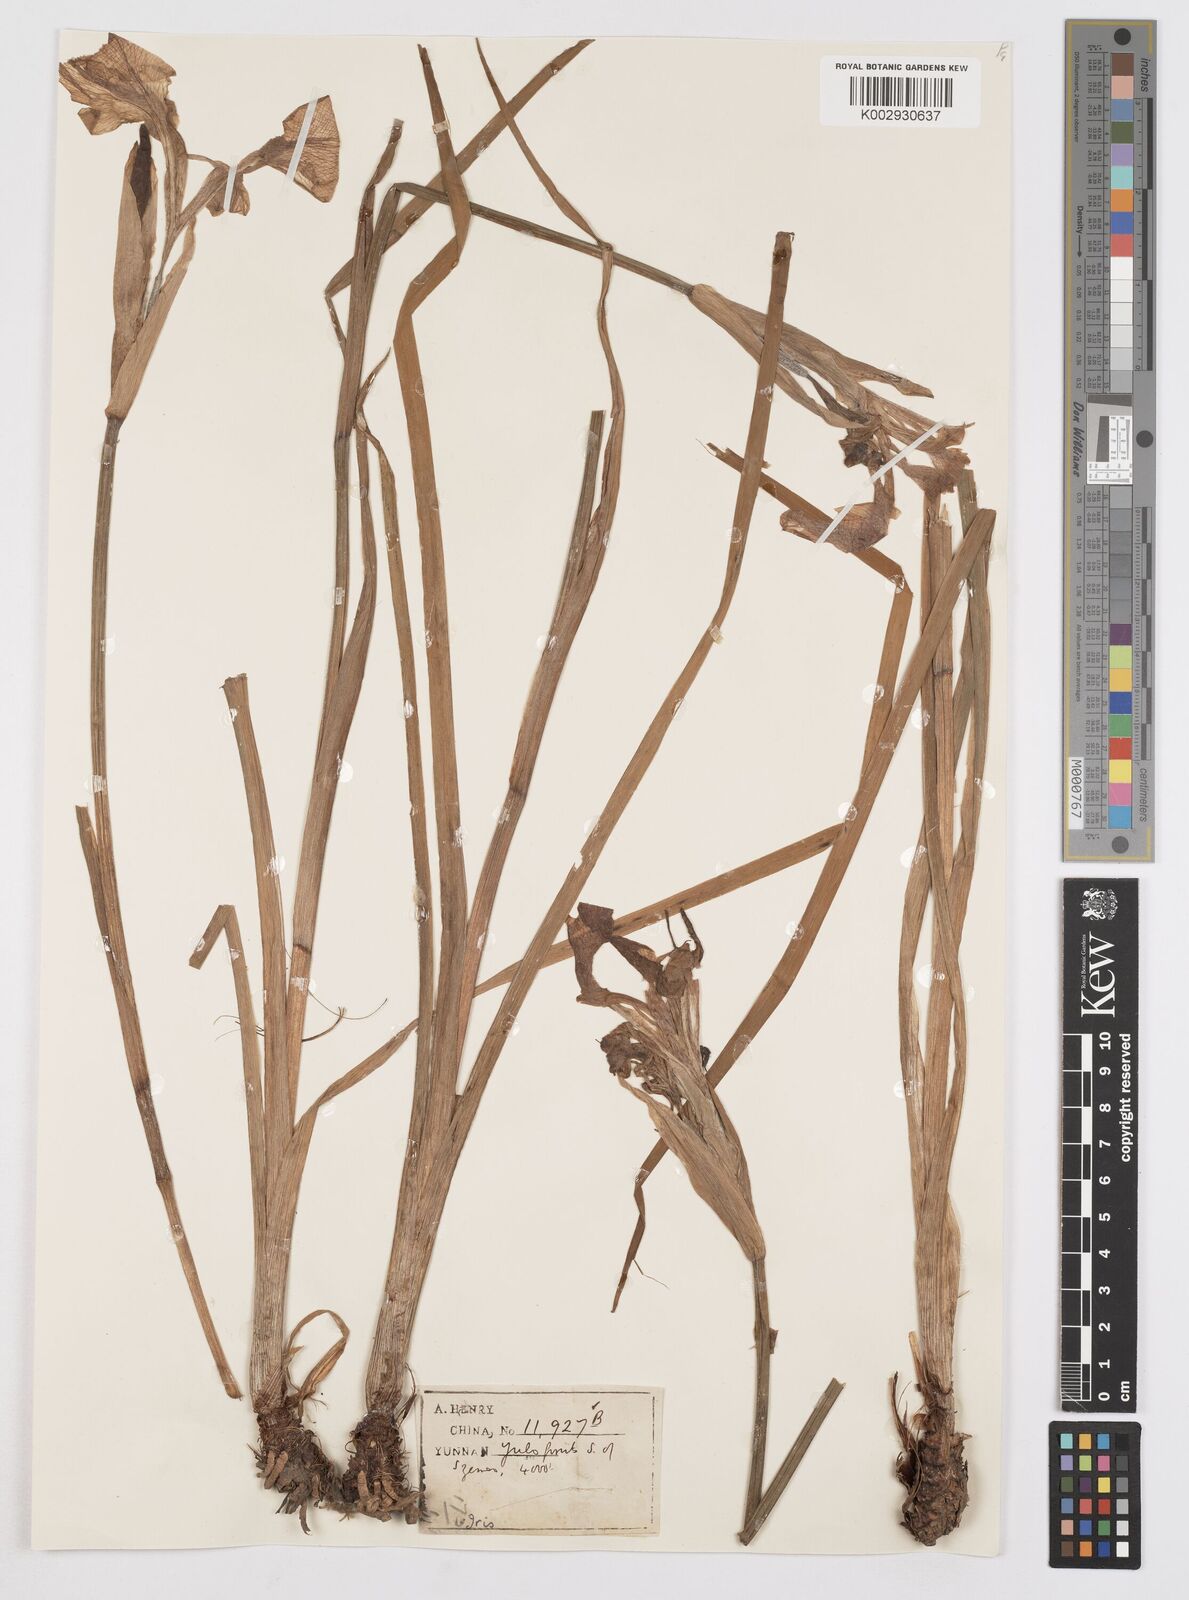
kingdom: Plantae
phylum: Tracheophyta
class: Liliopsida
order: Asparagales
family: Iridaceae
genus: Iris
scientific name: Iris laevigata
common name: Japanese iris
